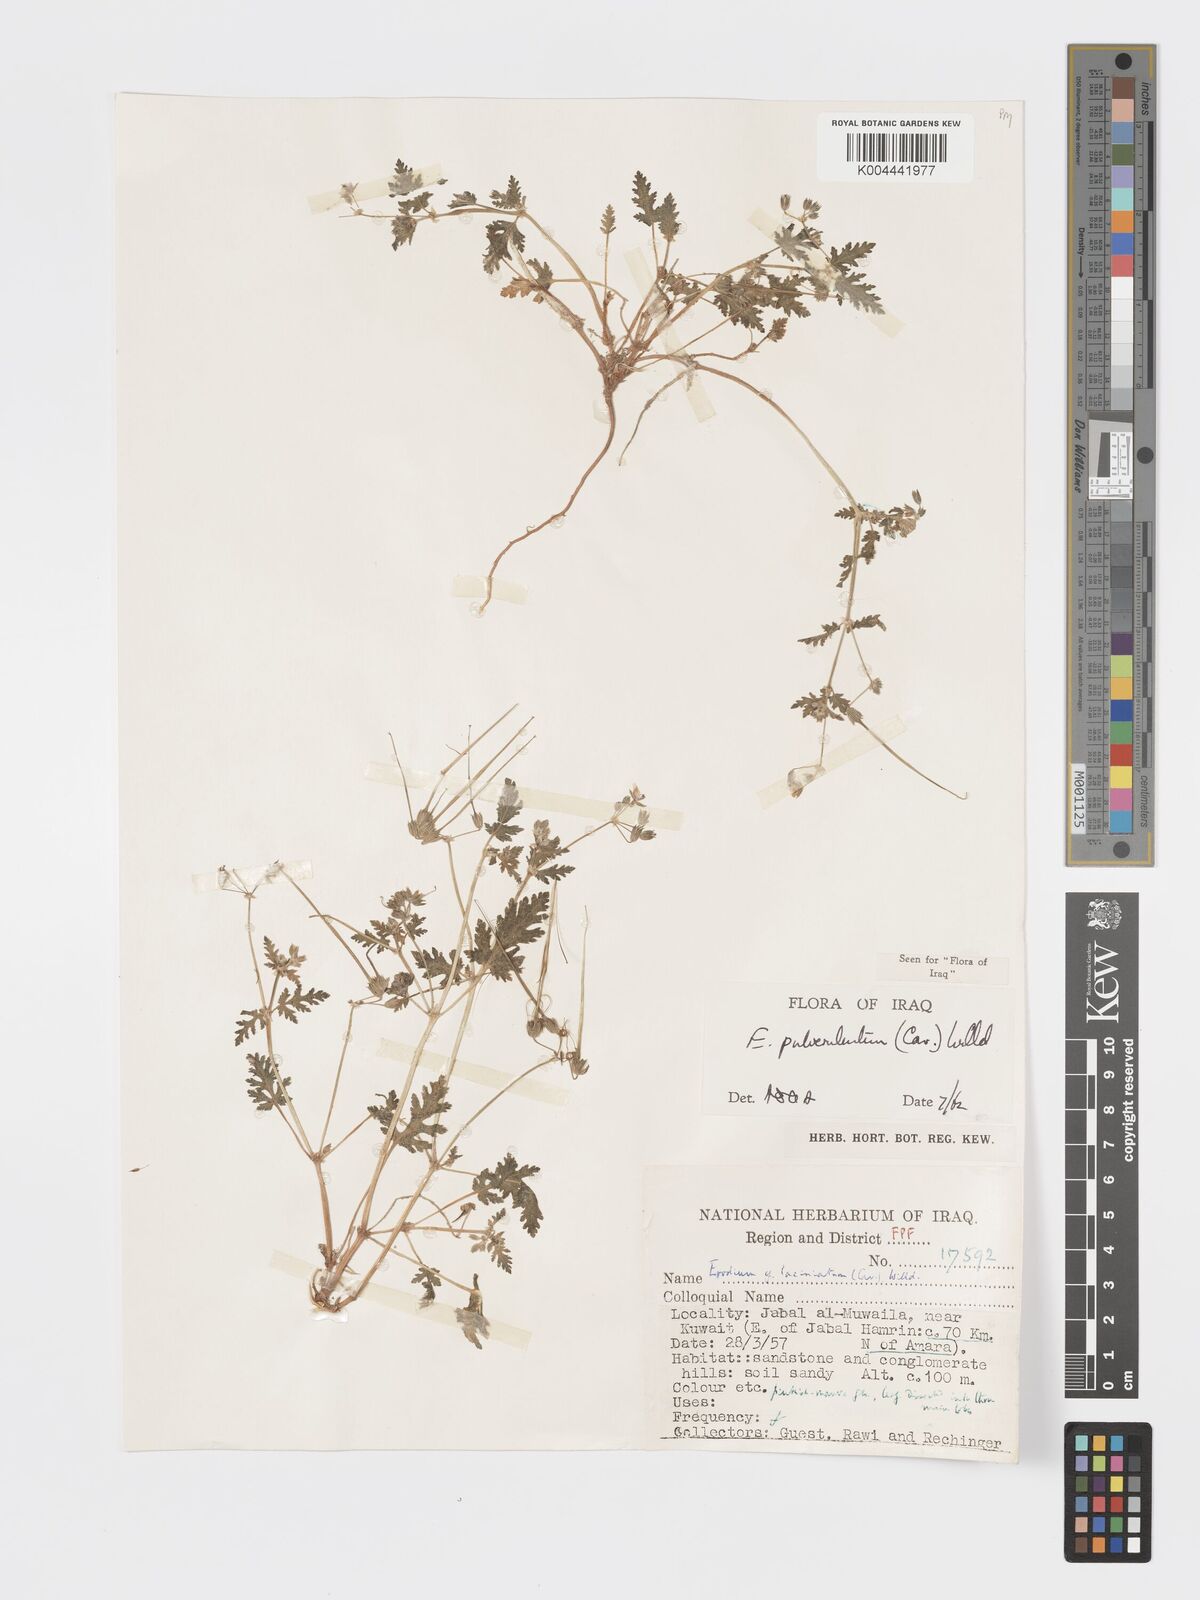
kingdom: Plantae
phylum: Tracheophyta
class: Magnoliopsida
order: Geraniales
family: Geraniaceae
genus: Erodium
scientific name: Erodium laciniatum
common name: Cutleaf stork's bill
